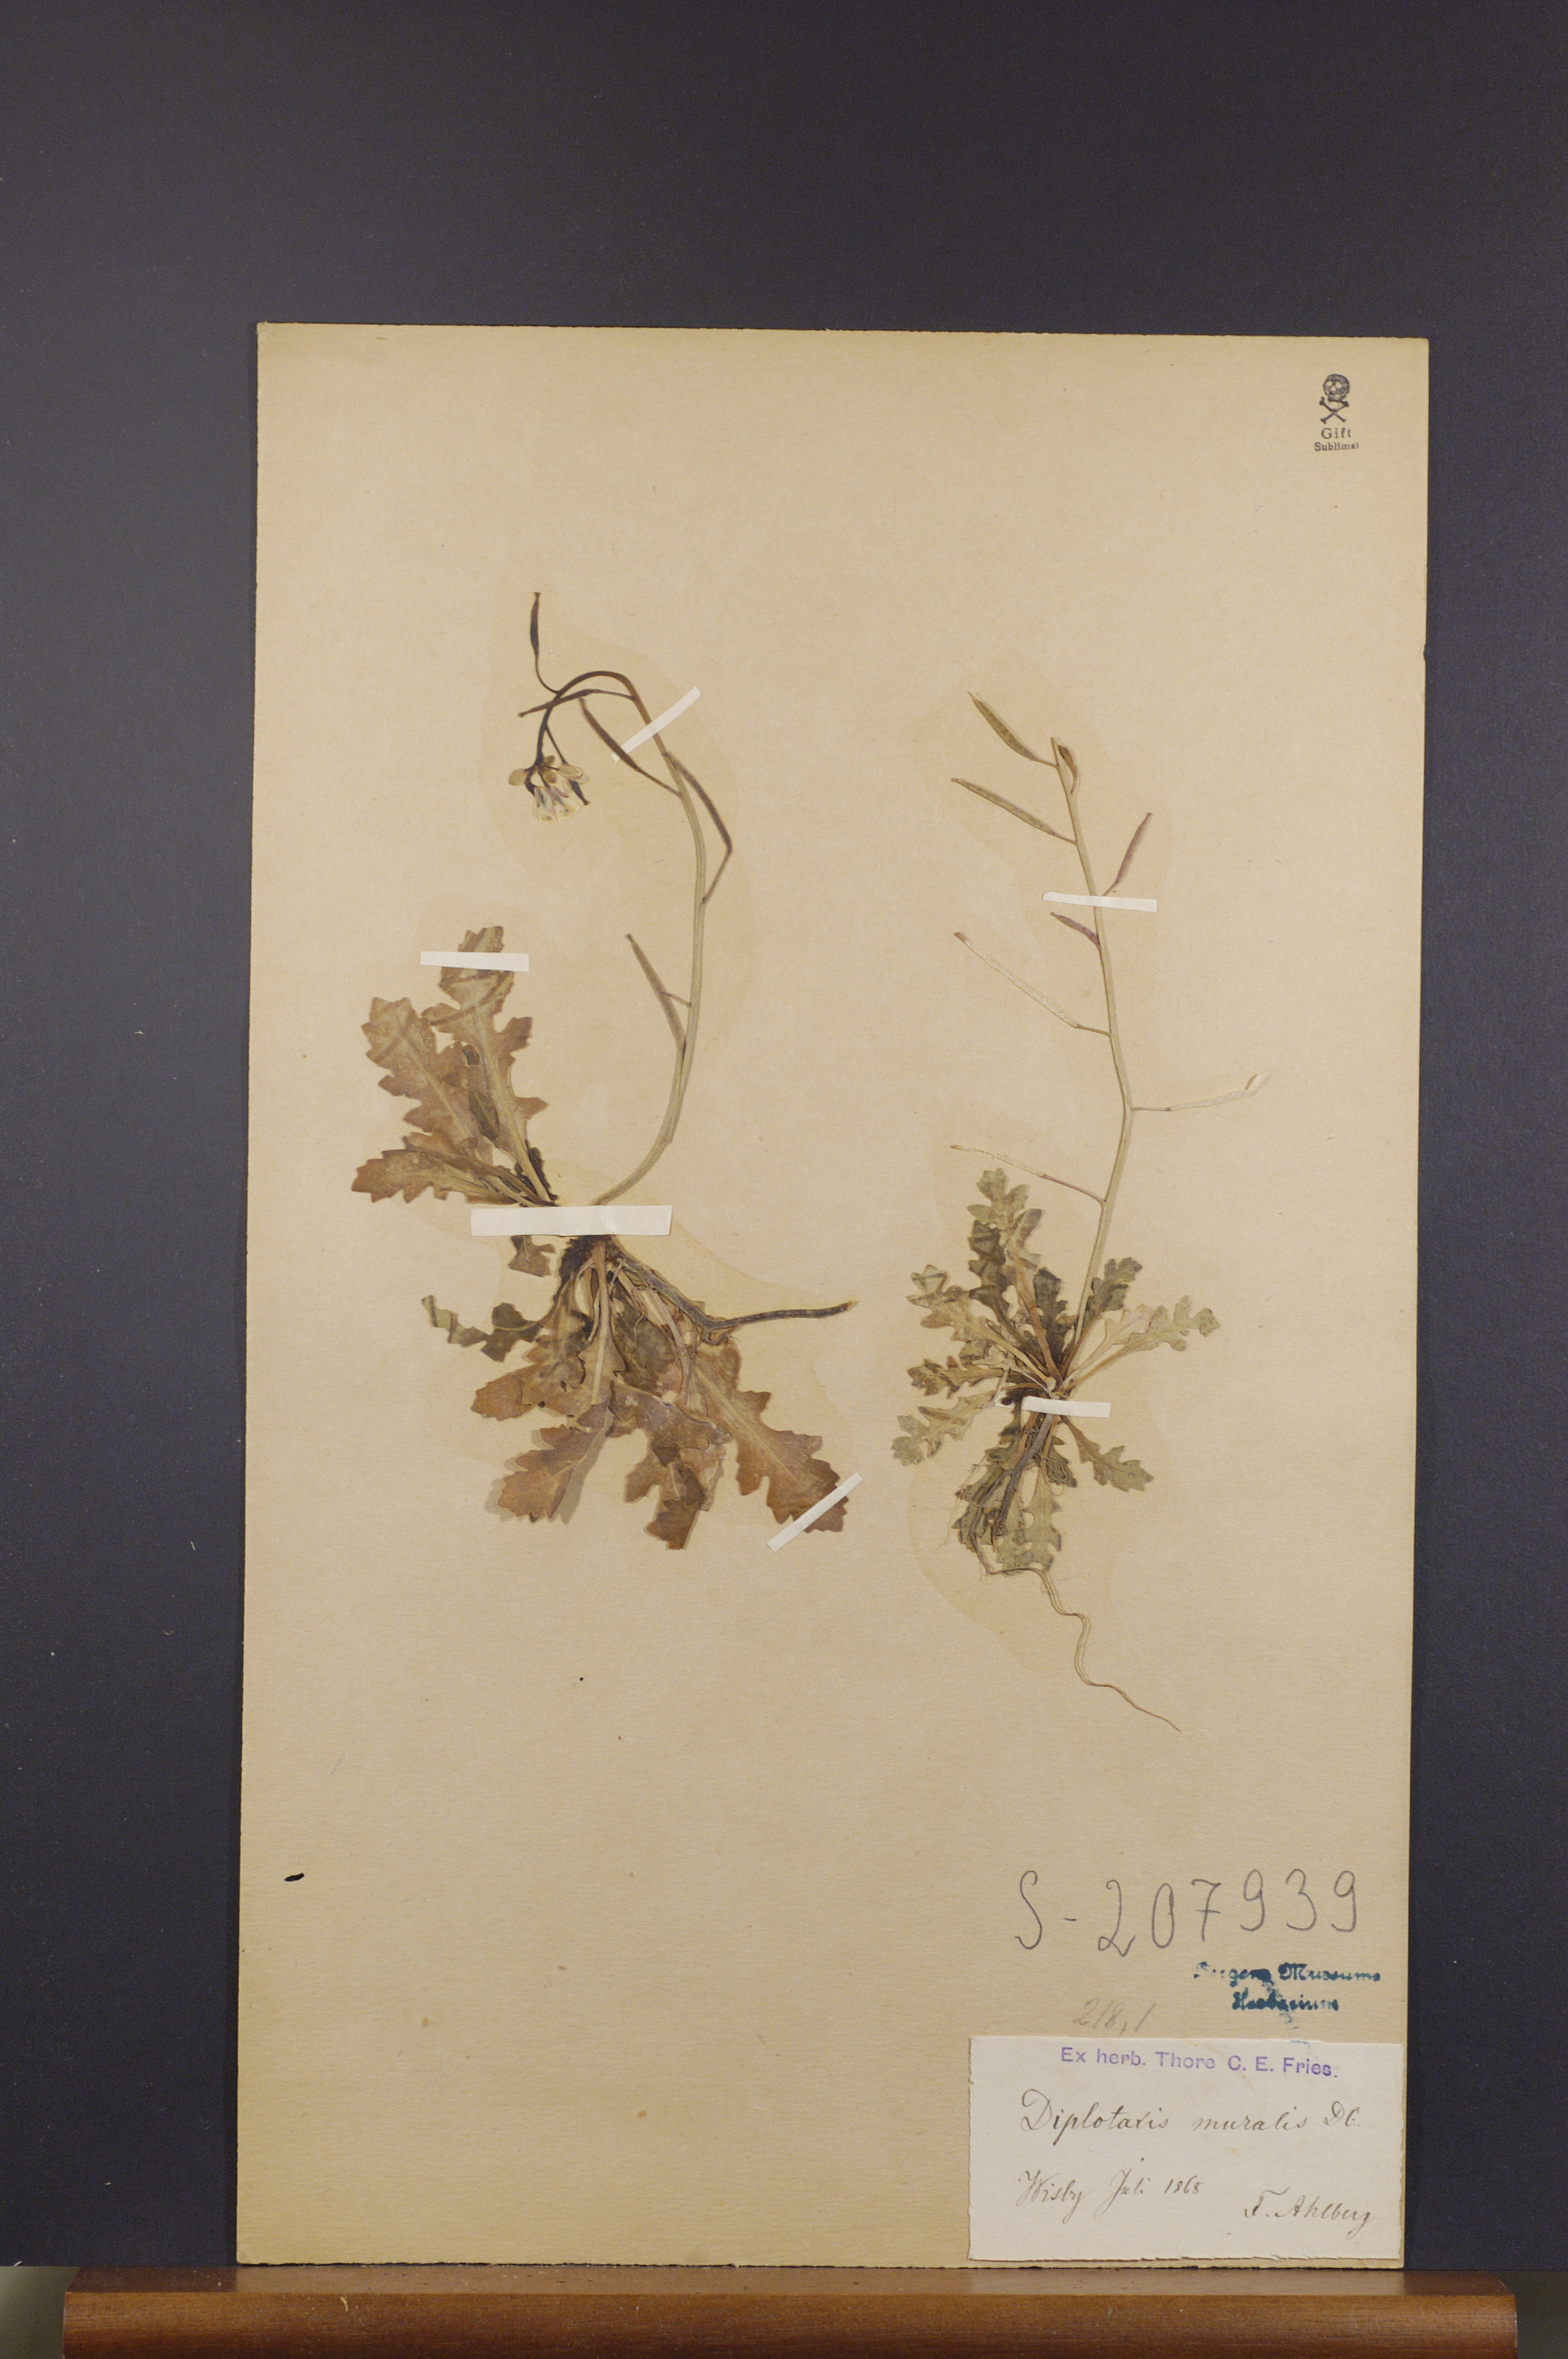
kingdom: Plantae
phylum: Tracheophyta
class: Magnoliopsida
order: Brassicales
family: Brassicaceae
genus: Diplotaxis
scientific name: Diplotaxis muralis
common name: Annual wall-rocket
